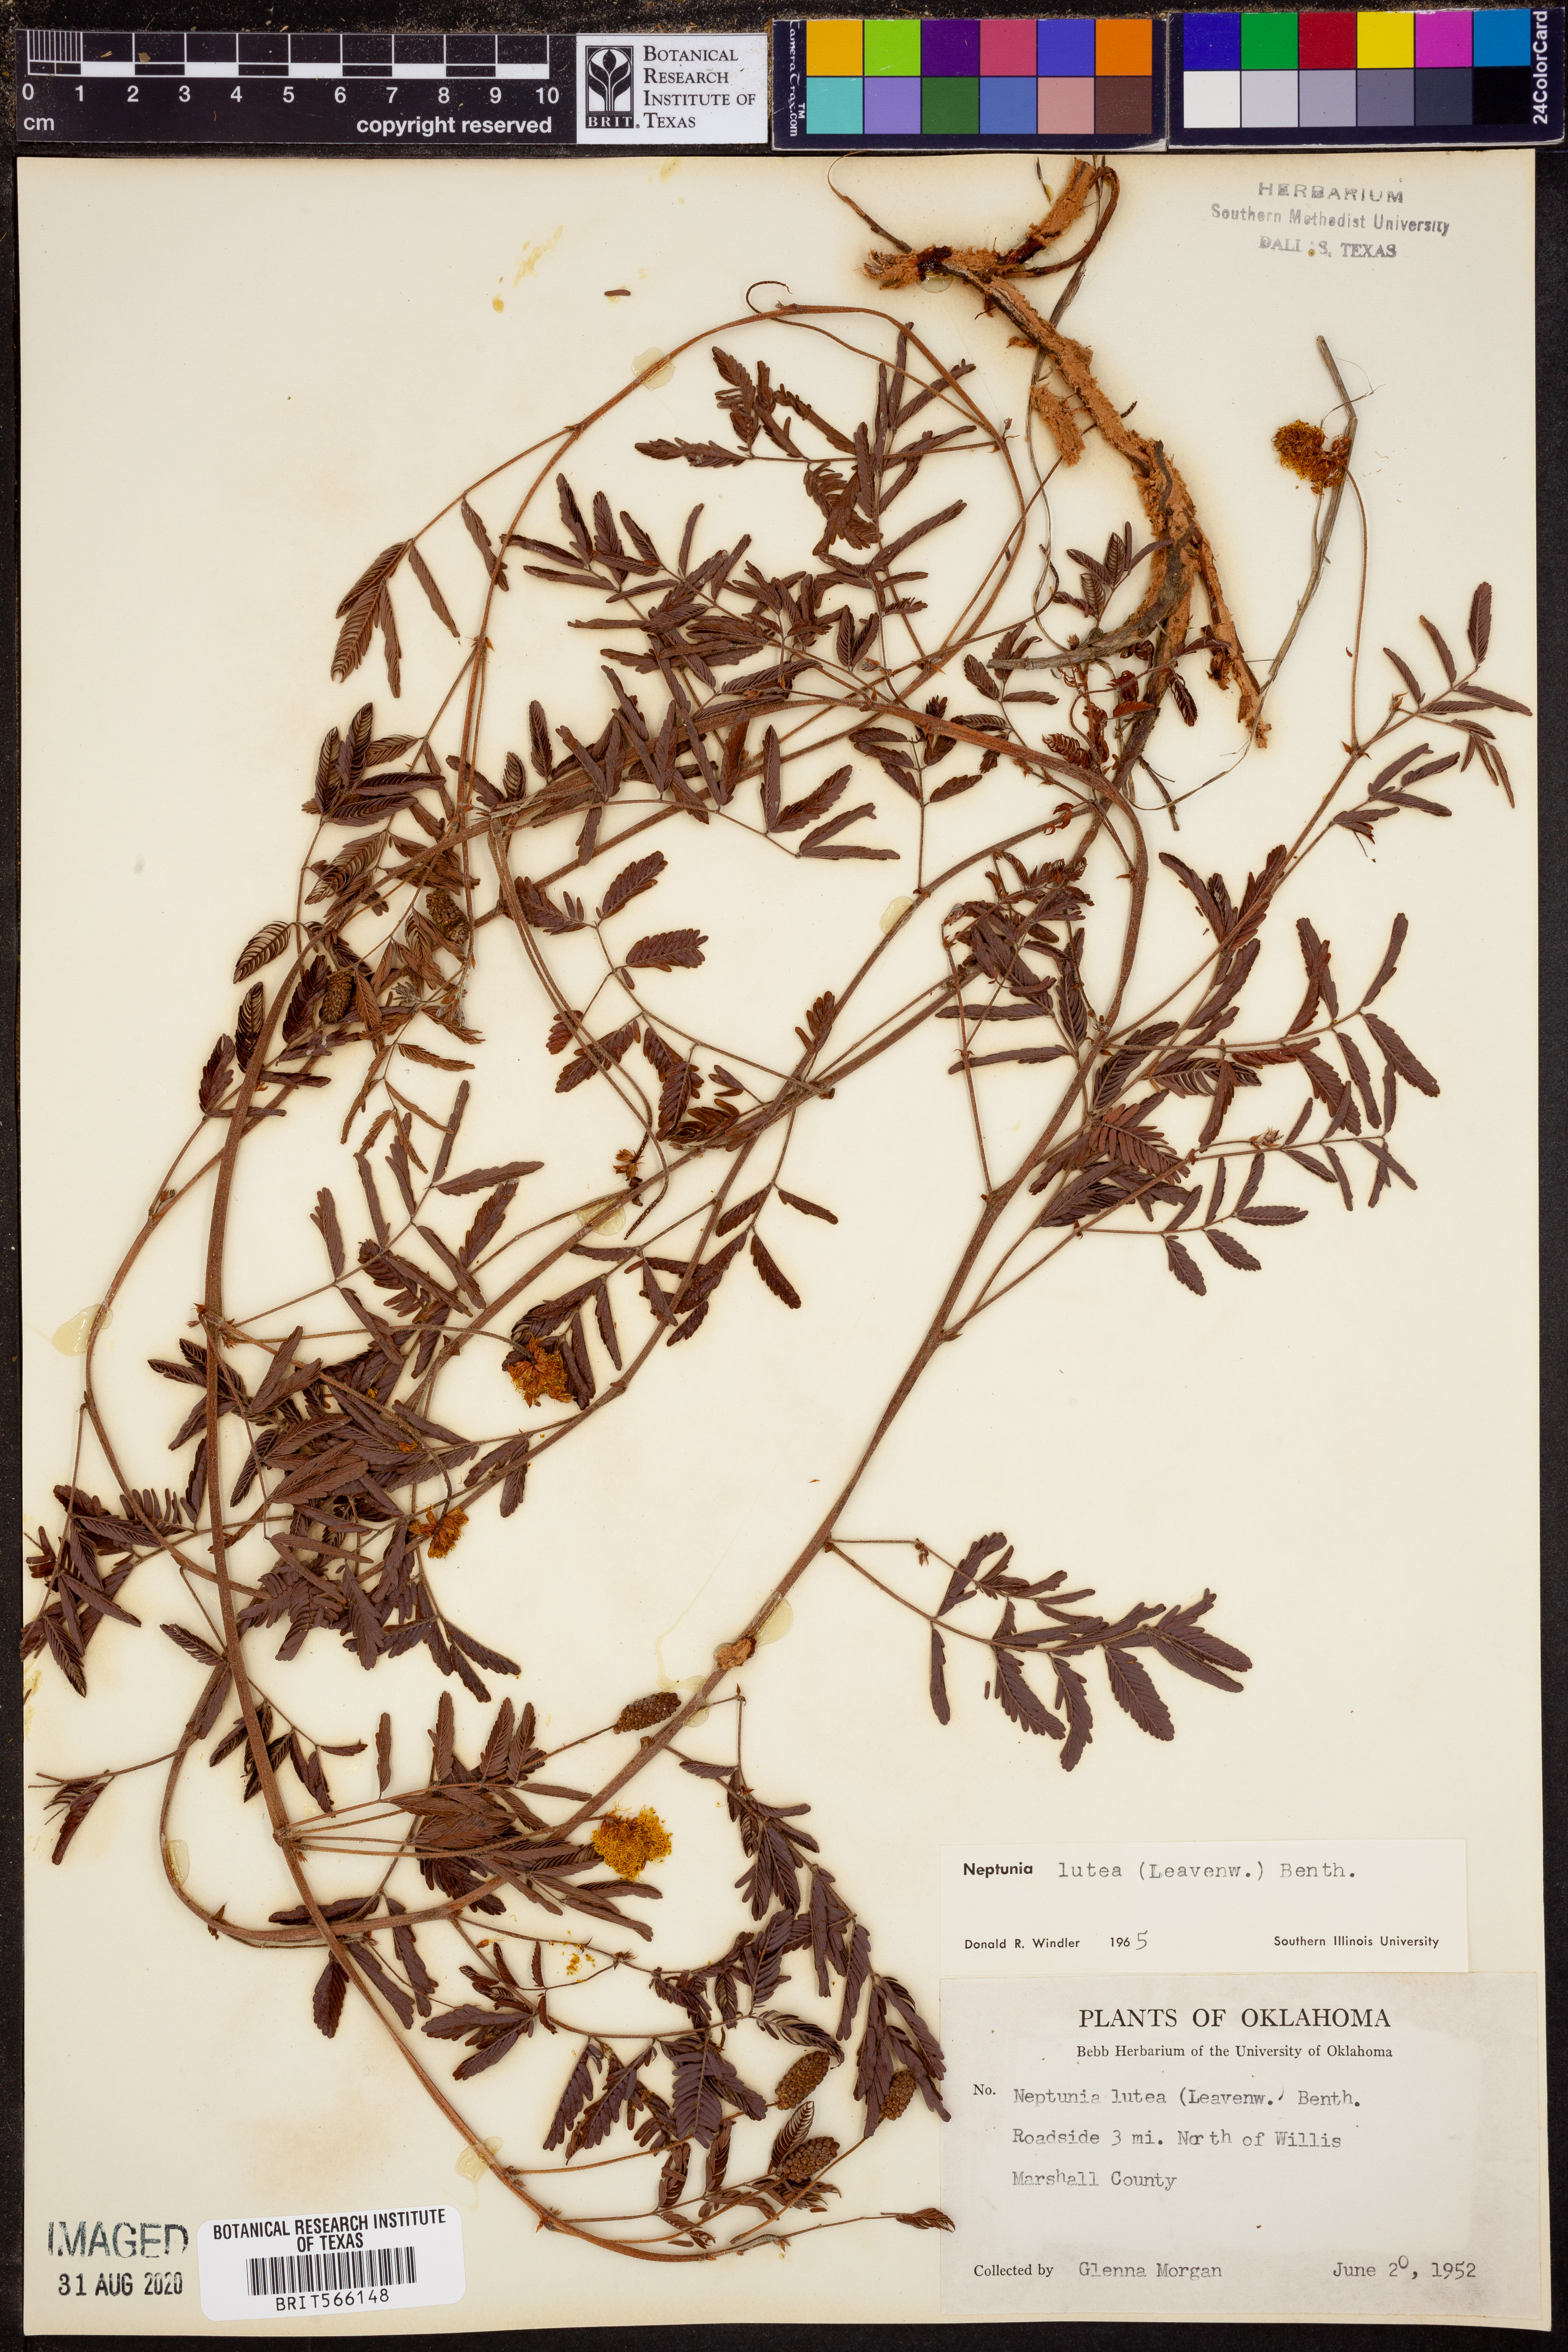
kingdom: Plantae
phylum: Tracheophyta
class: Magnoliopsida
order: Fabales
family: Fabaceae
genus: Neptunia
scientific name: Neptunia lutea
